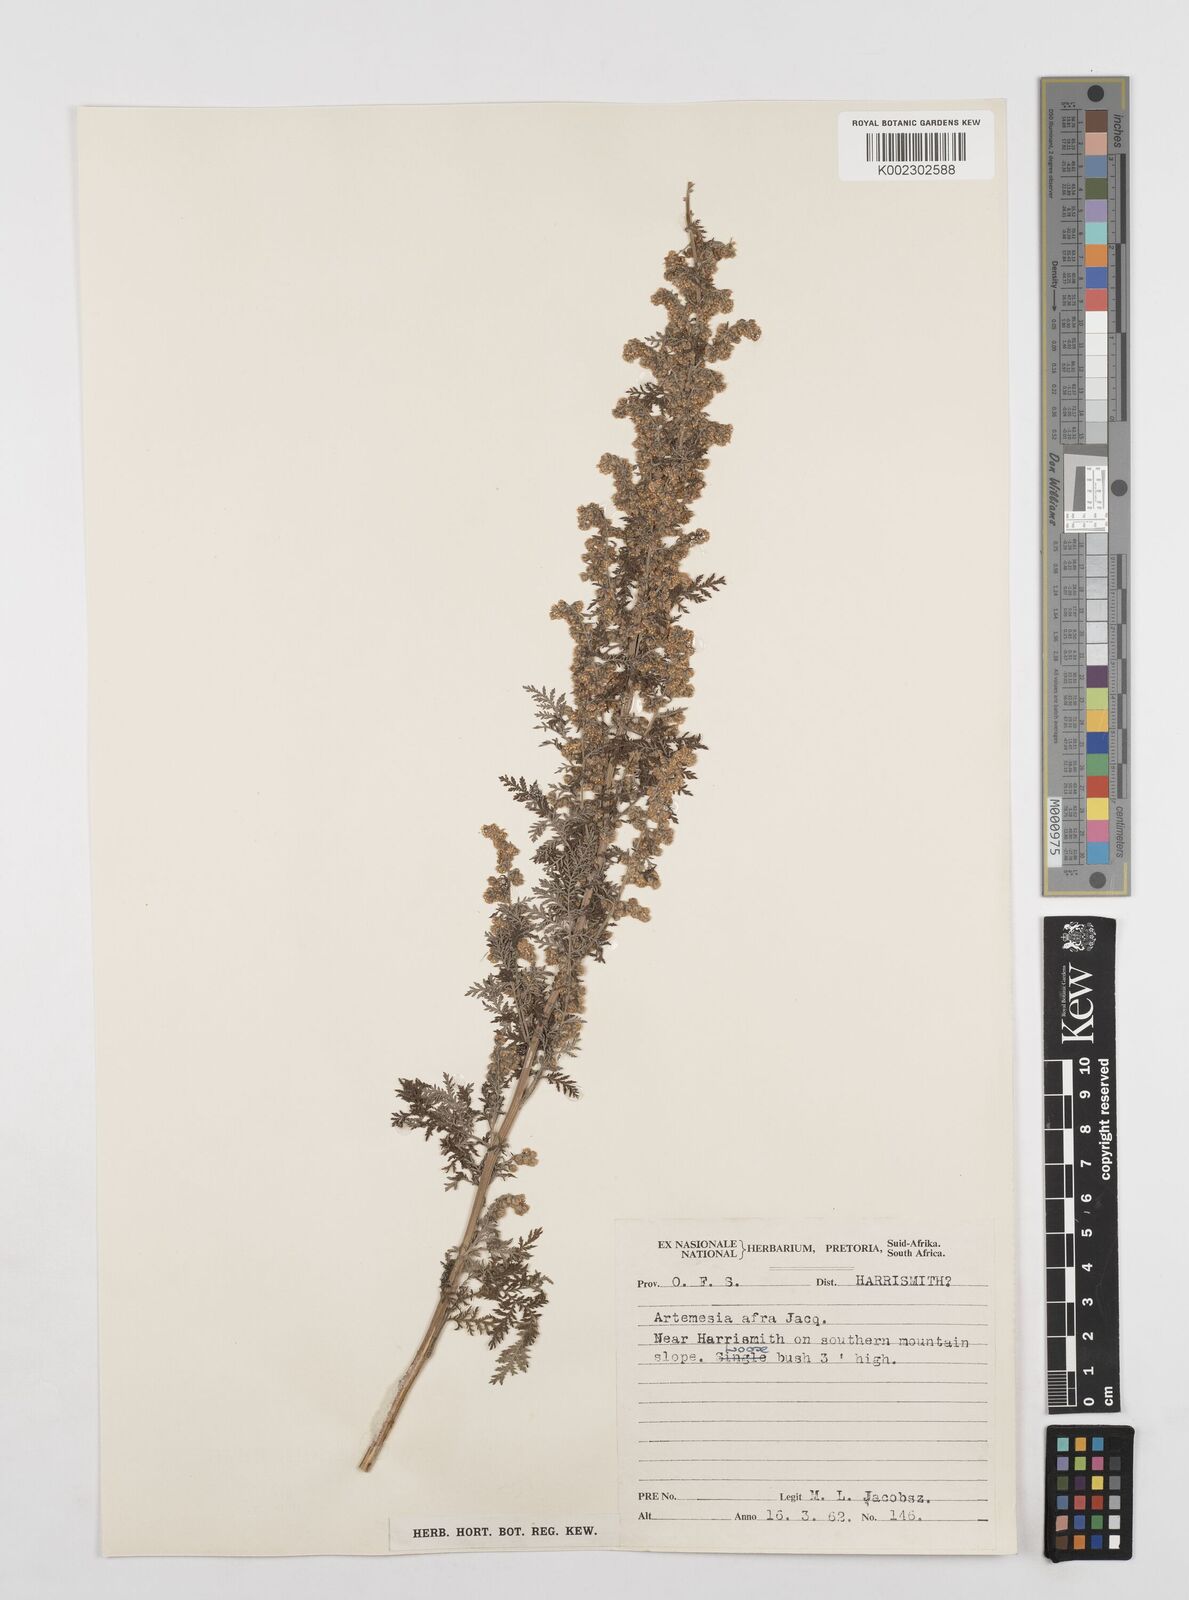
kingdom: Plantae
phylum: Tracheophyta
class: Magnoliopsida
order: Asterales
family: Asteraceae
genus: Artemisia
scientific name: Artemisia afra
